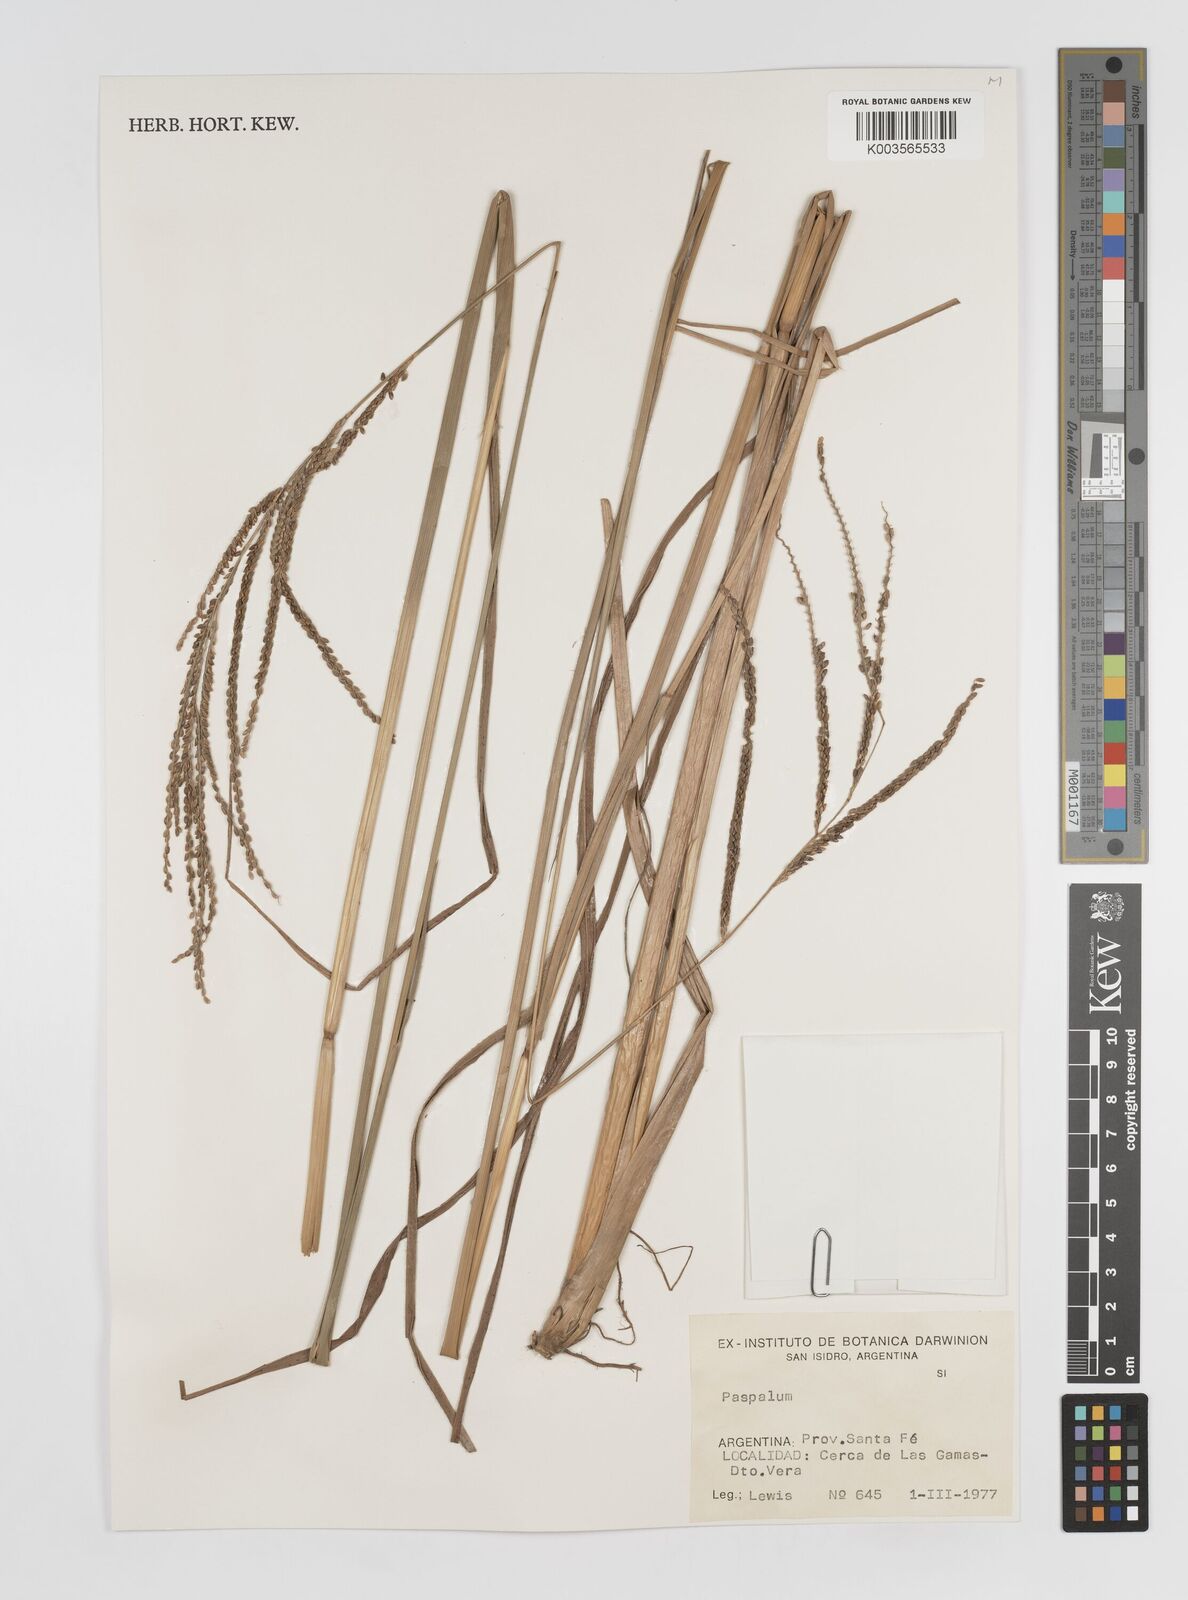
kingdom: Plantae
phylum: Tracheophyta
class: Liliopsida
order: Poales
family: Poaceae
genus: Paspalum
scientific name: Paspalum
